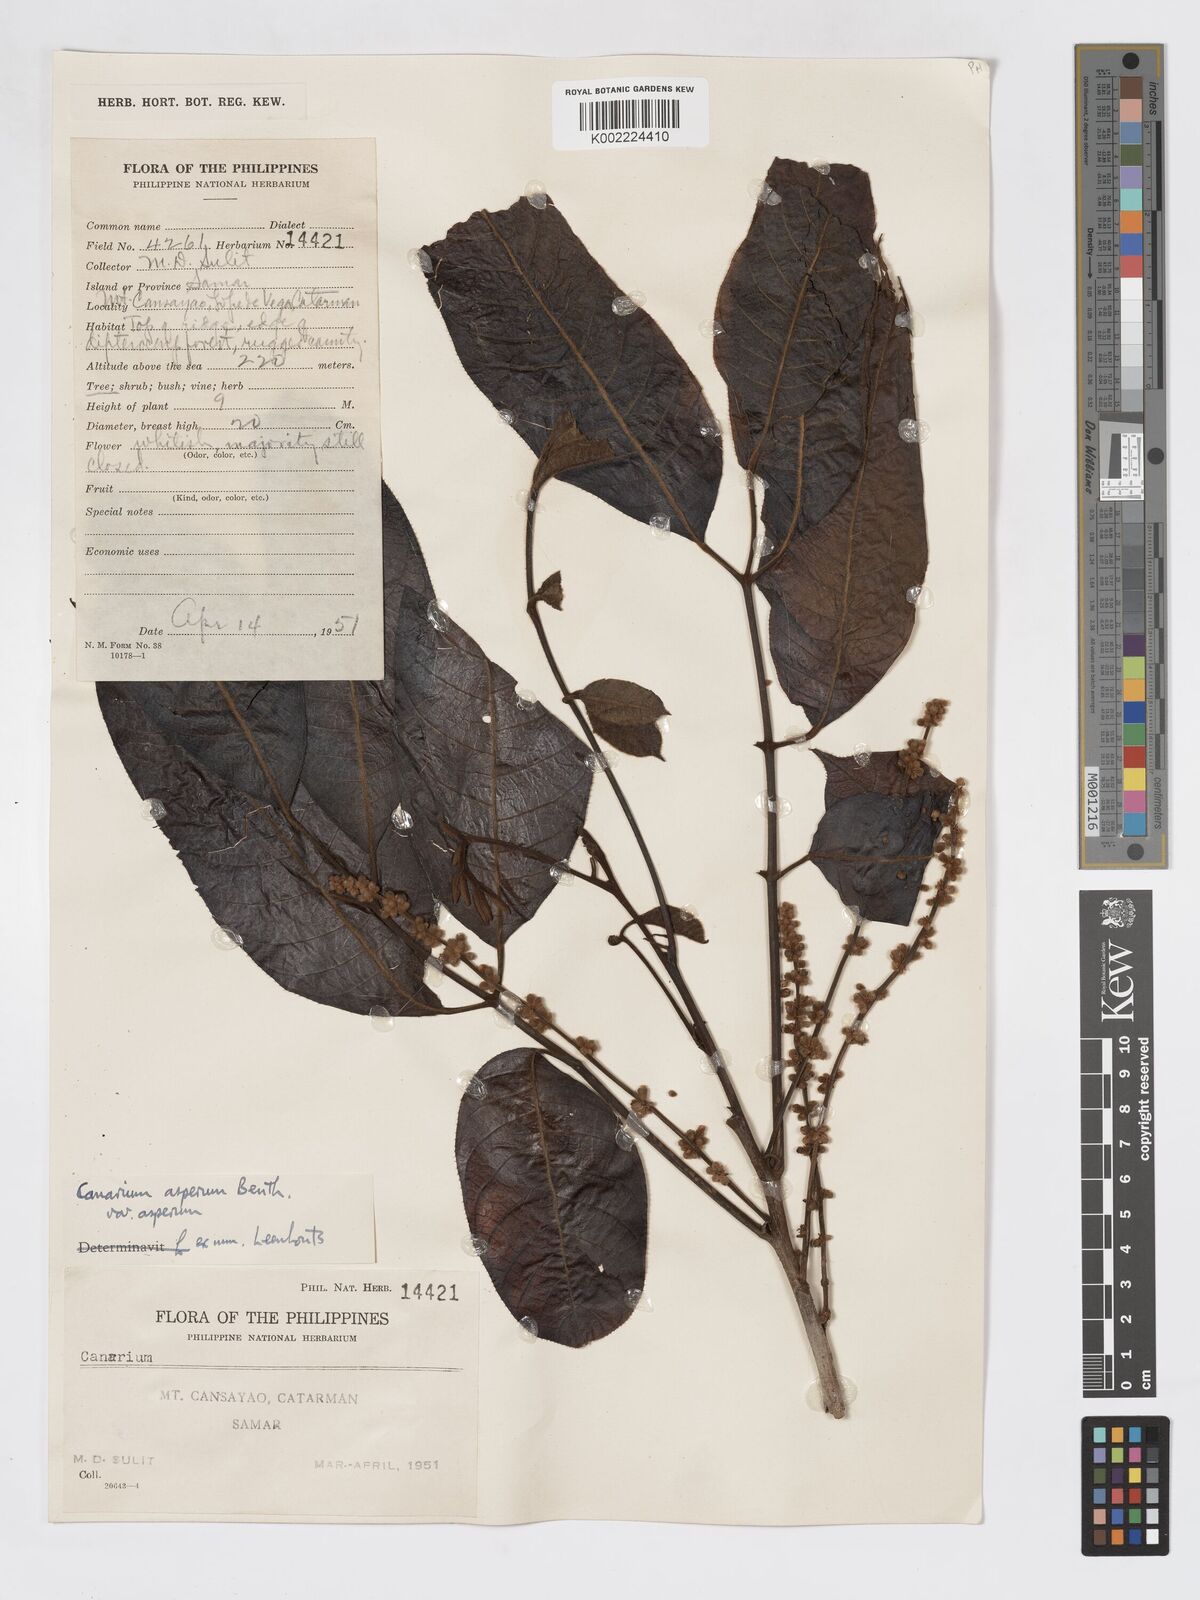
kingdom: Plantae
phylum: Tracheophyta
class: Magnoliopsida
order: Sapindales
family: Burseraceae
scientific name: Burseraceae
